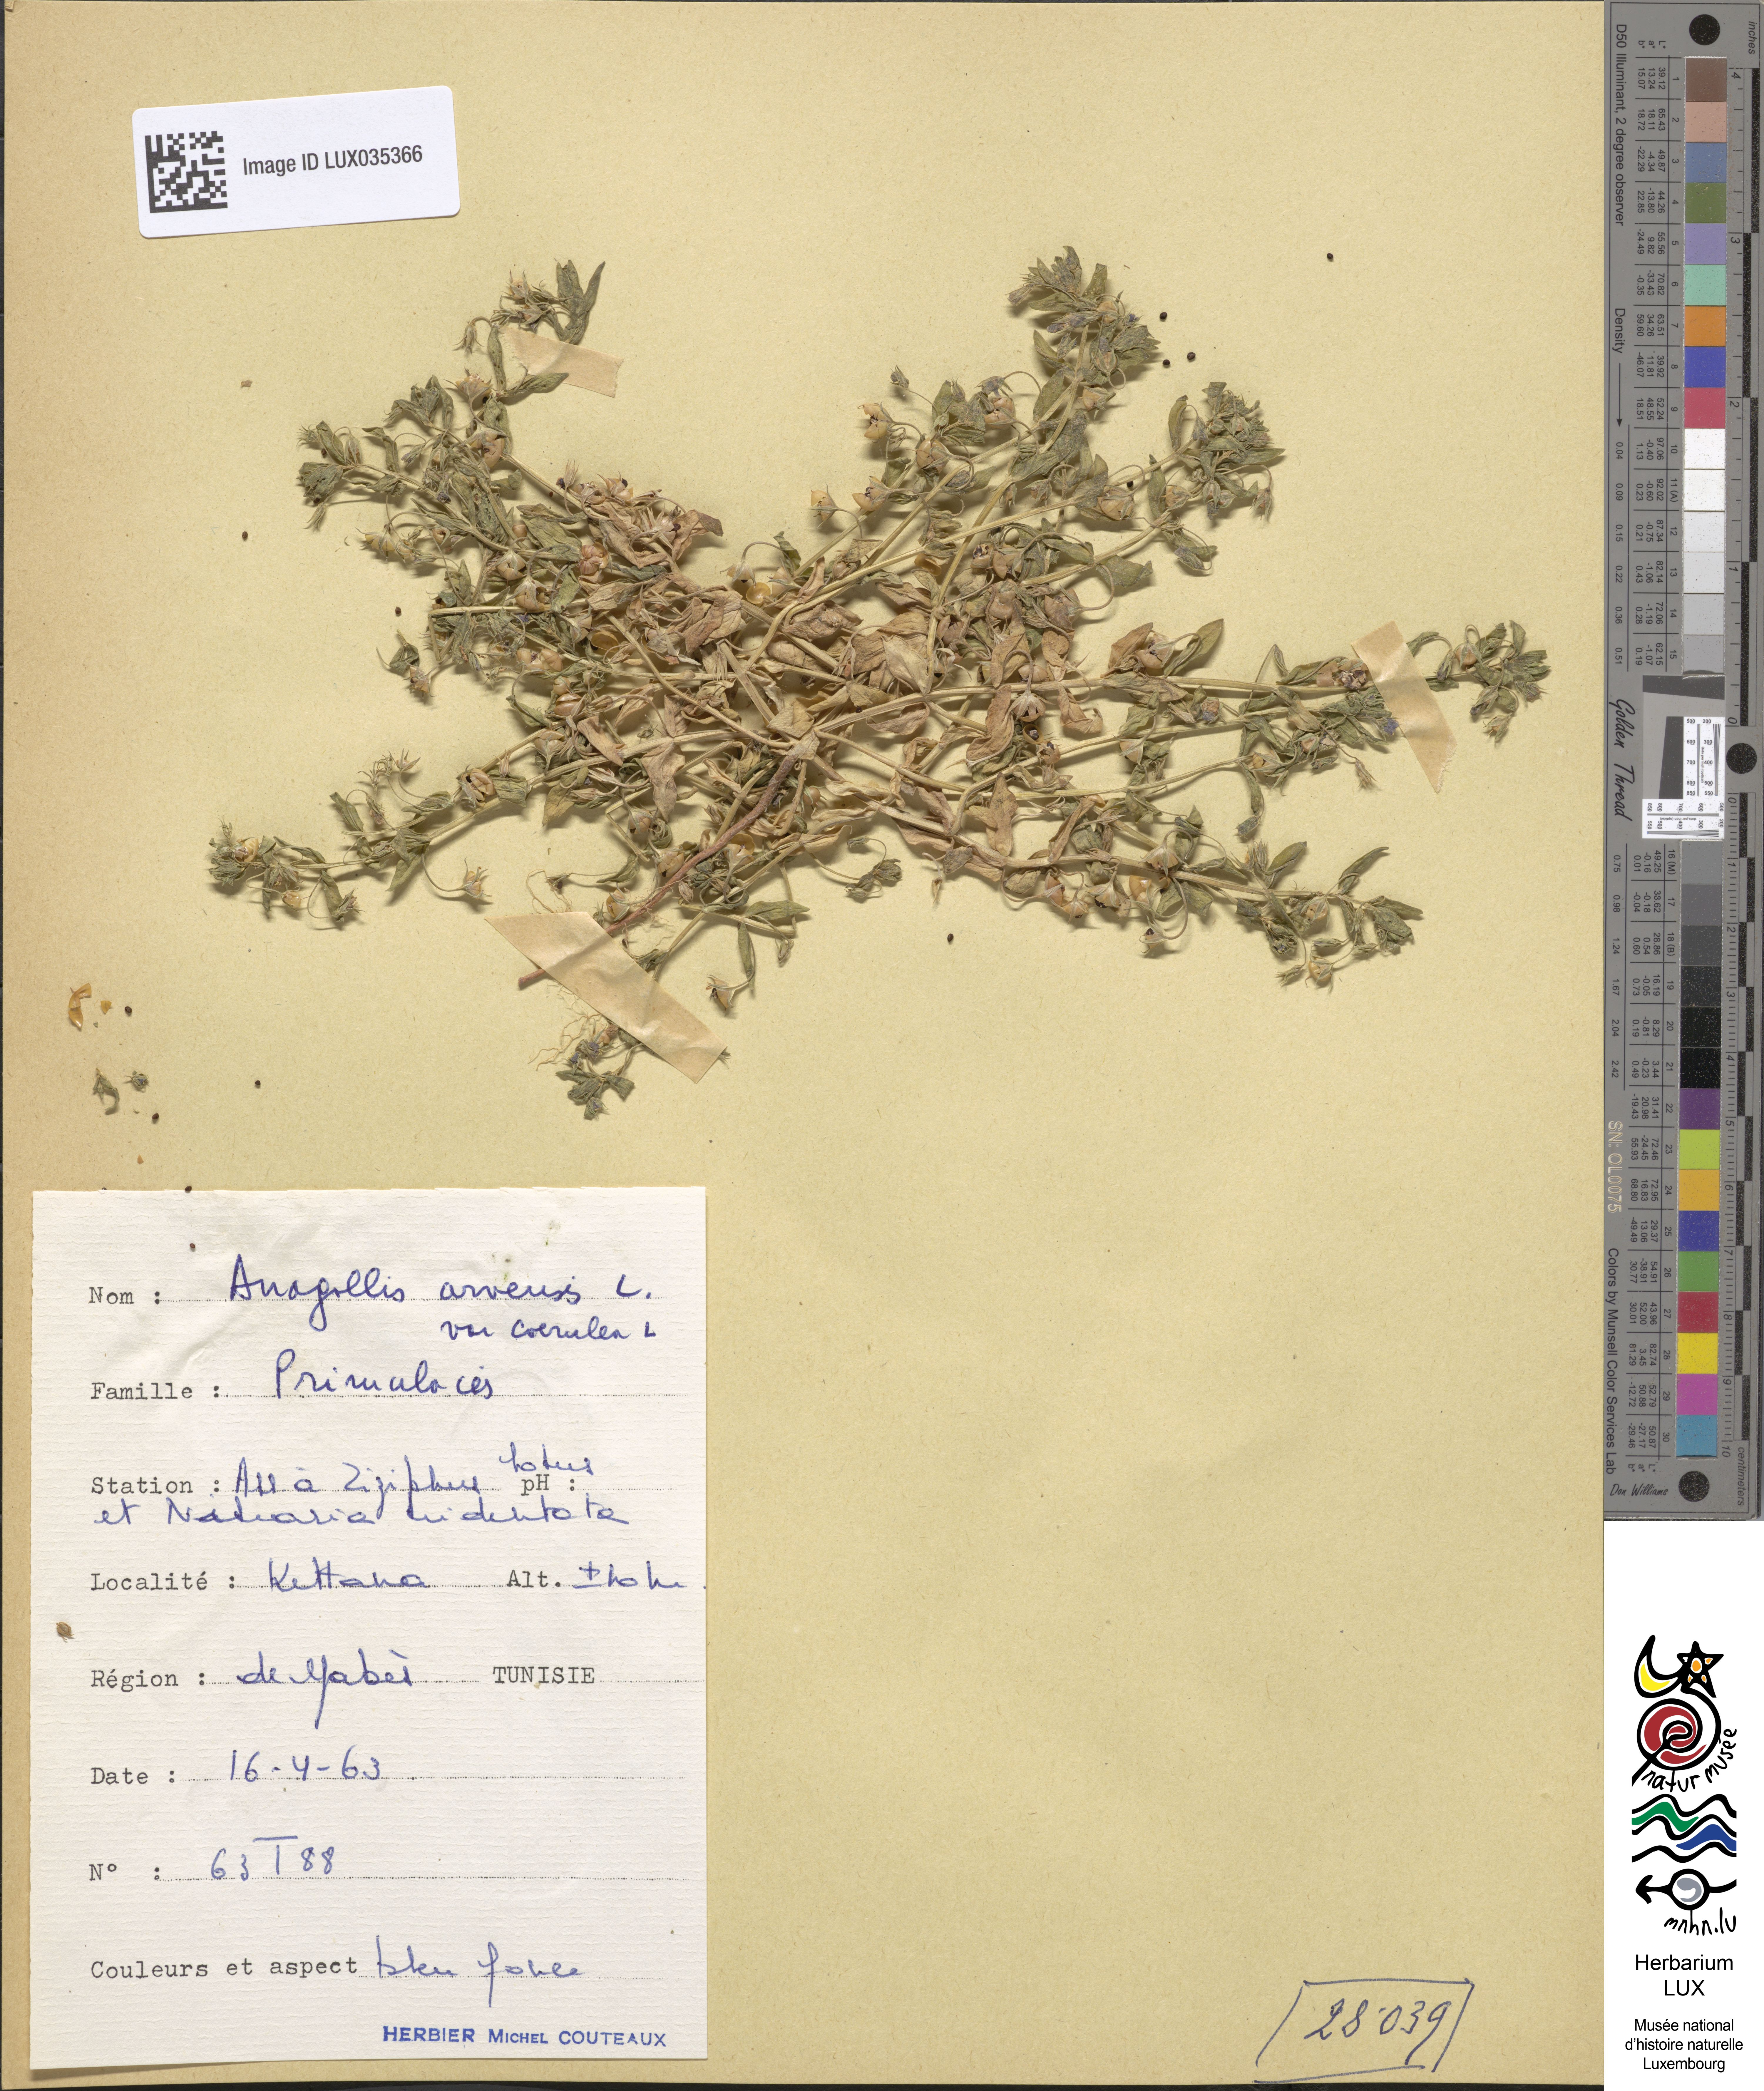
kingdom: Plantae
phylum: Tracheophyta
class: Magnoliopsida
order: Ericales
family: Primulaceae
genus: Lysimachia
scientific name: Lysimachia foemina
